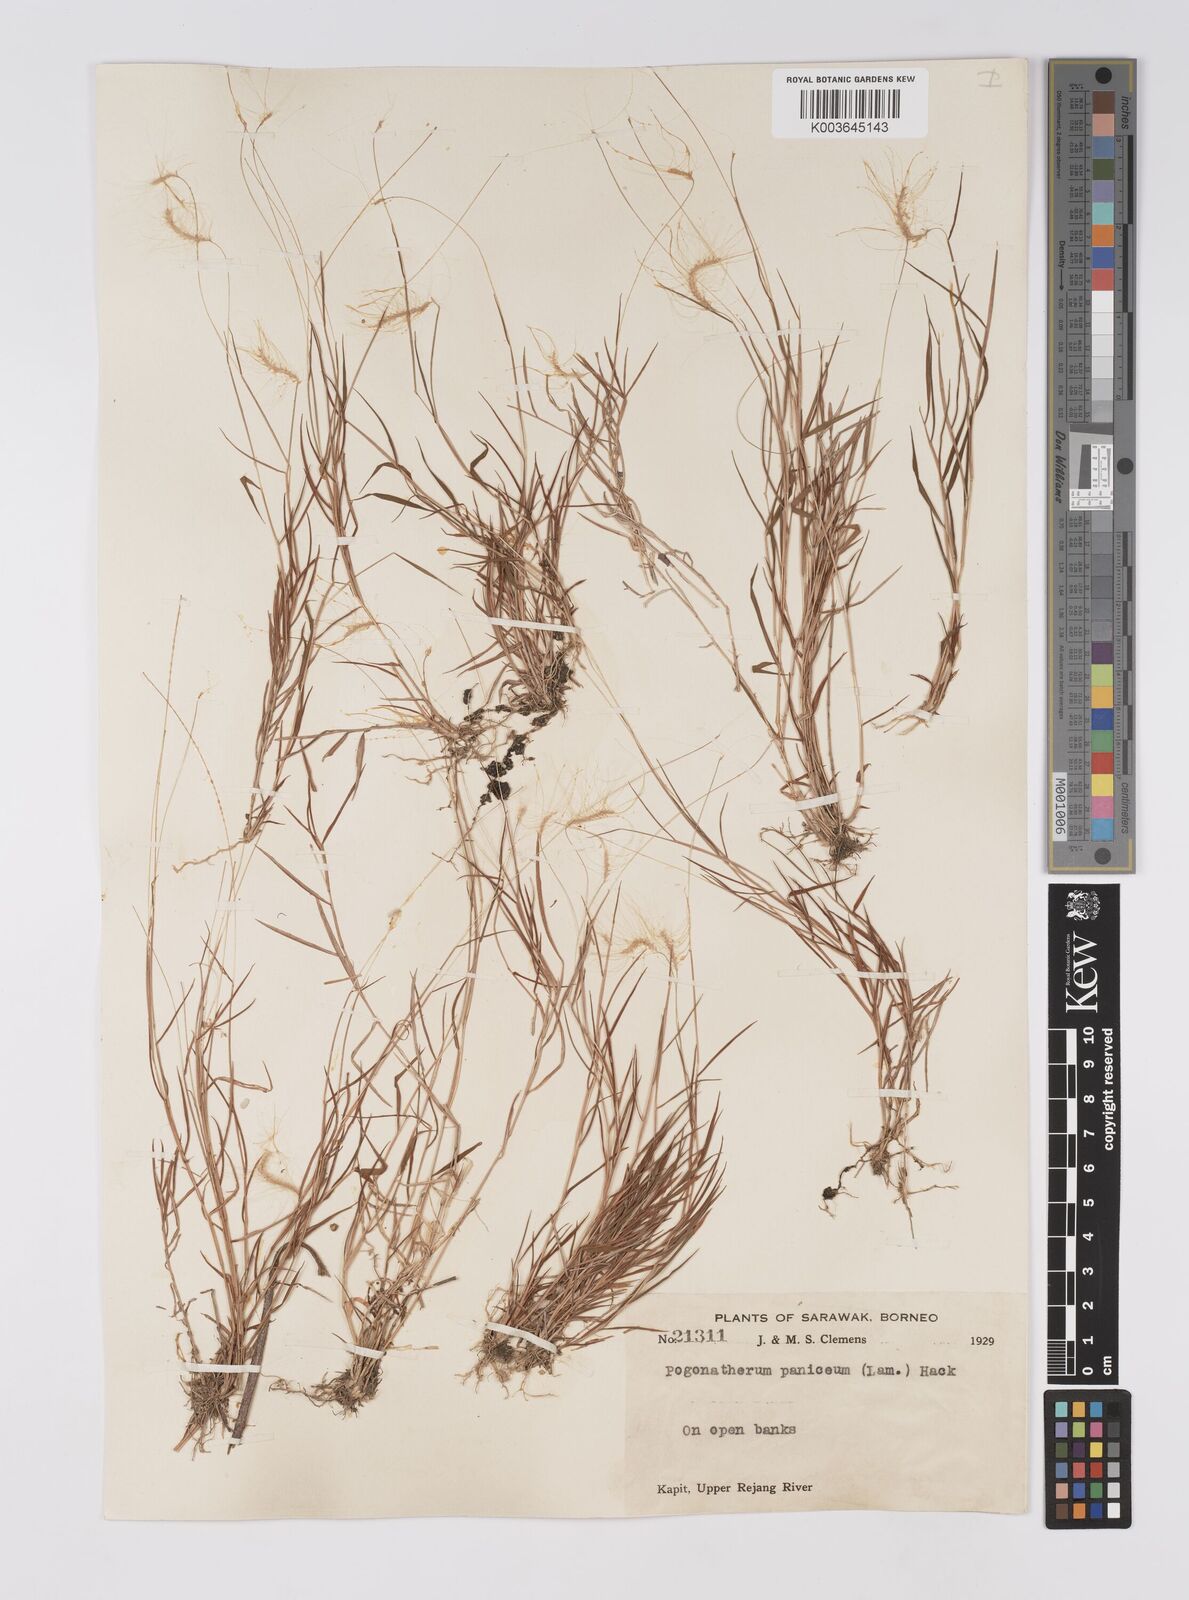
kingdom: Plantae
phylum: Tracheophyta
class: Liliopsida
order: Poales
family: Poaceae
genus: Pogonatherum
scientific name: Pogonatherum crinitum
